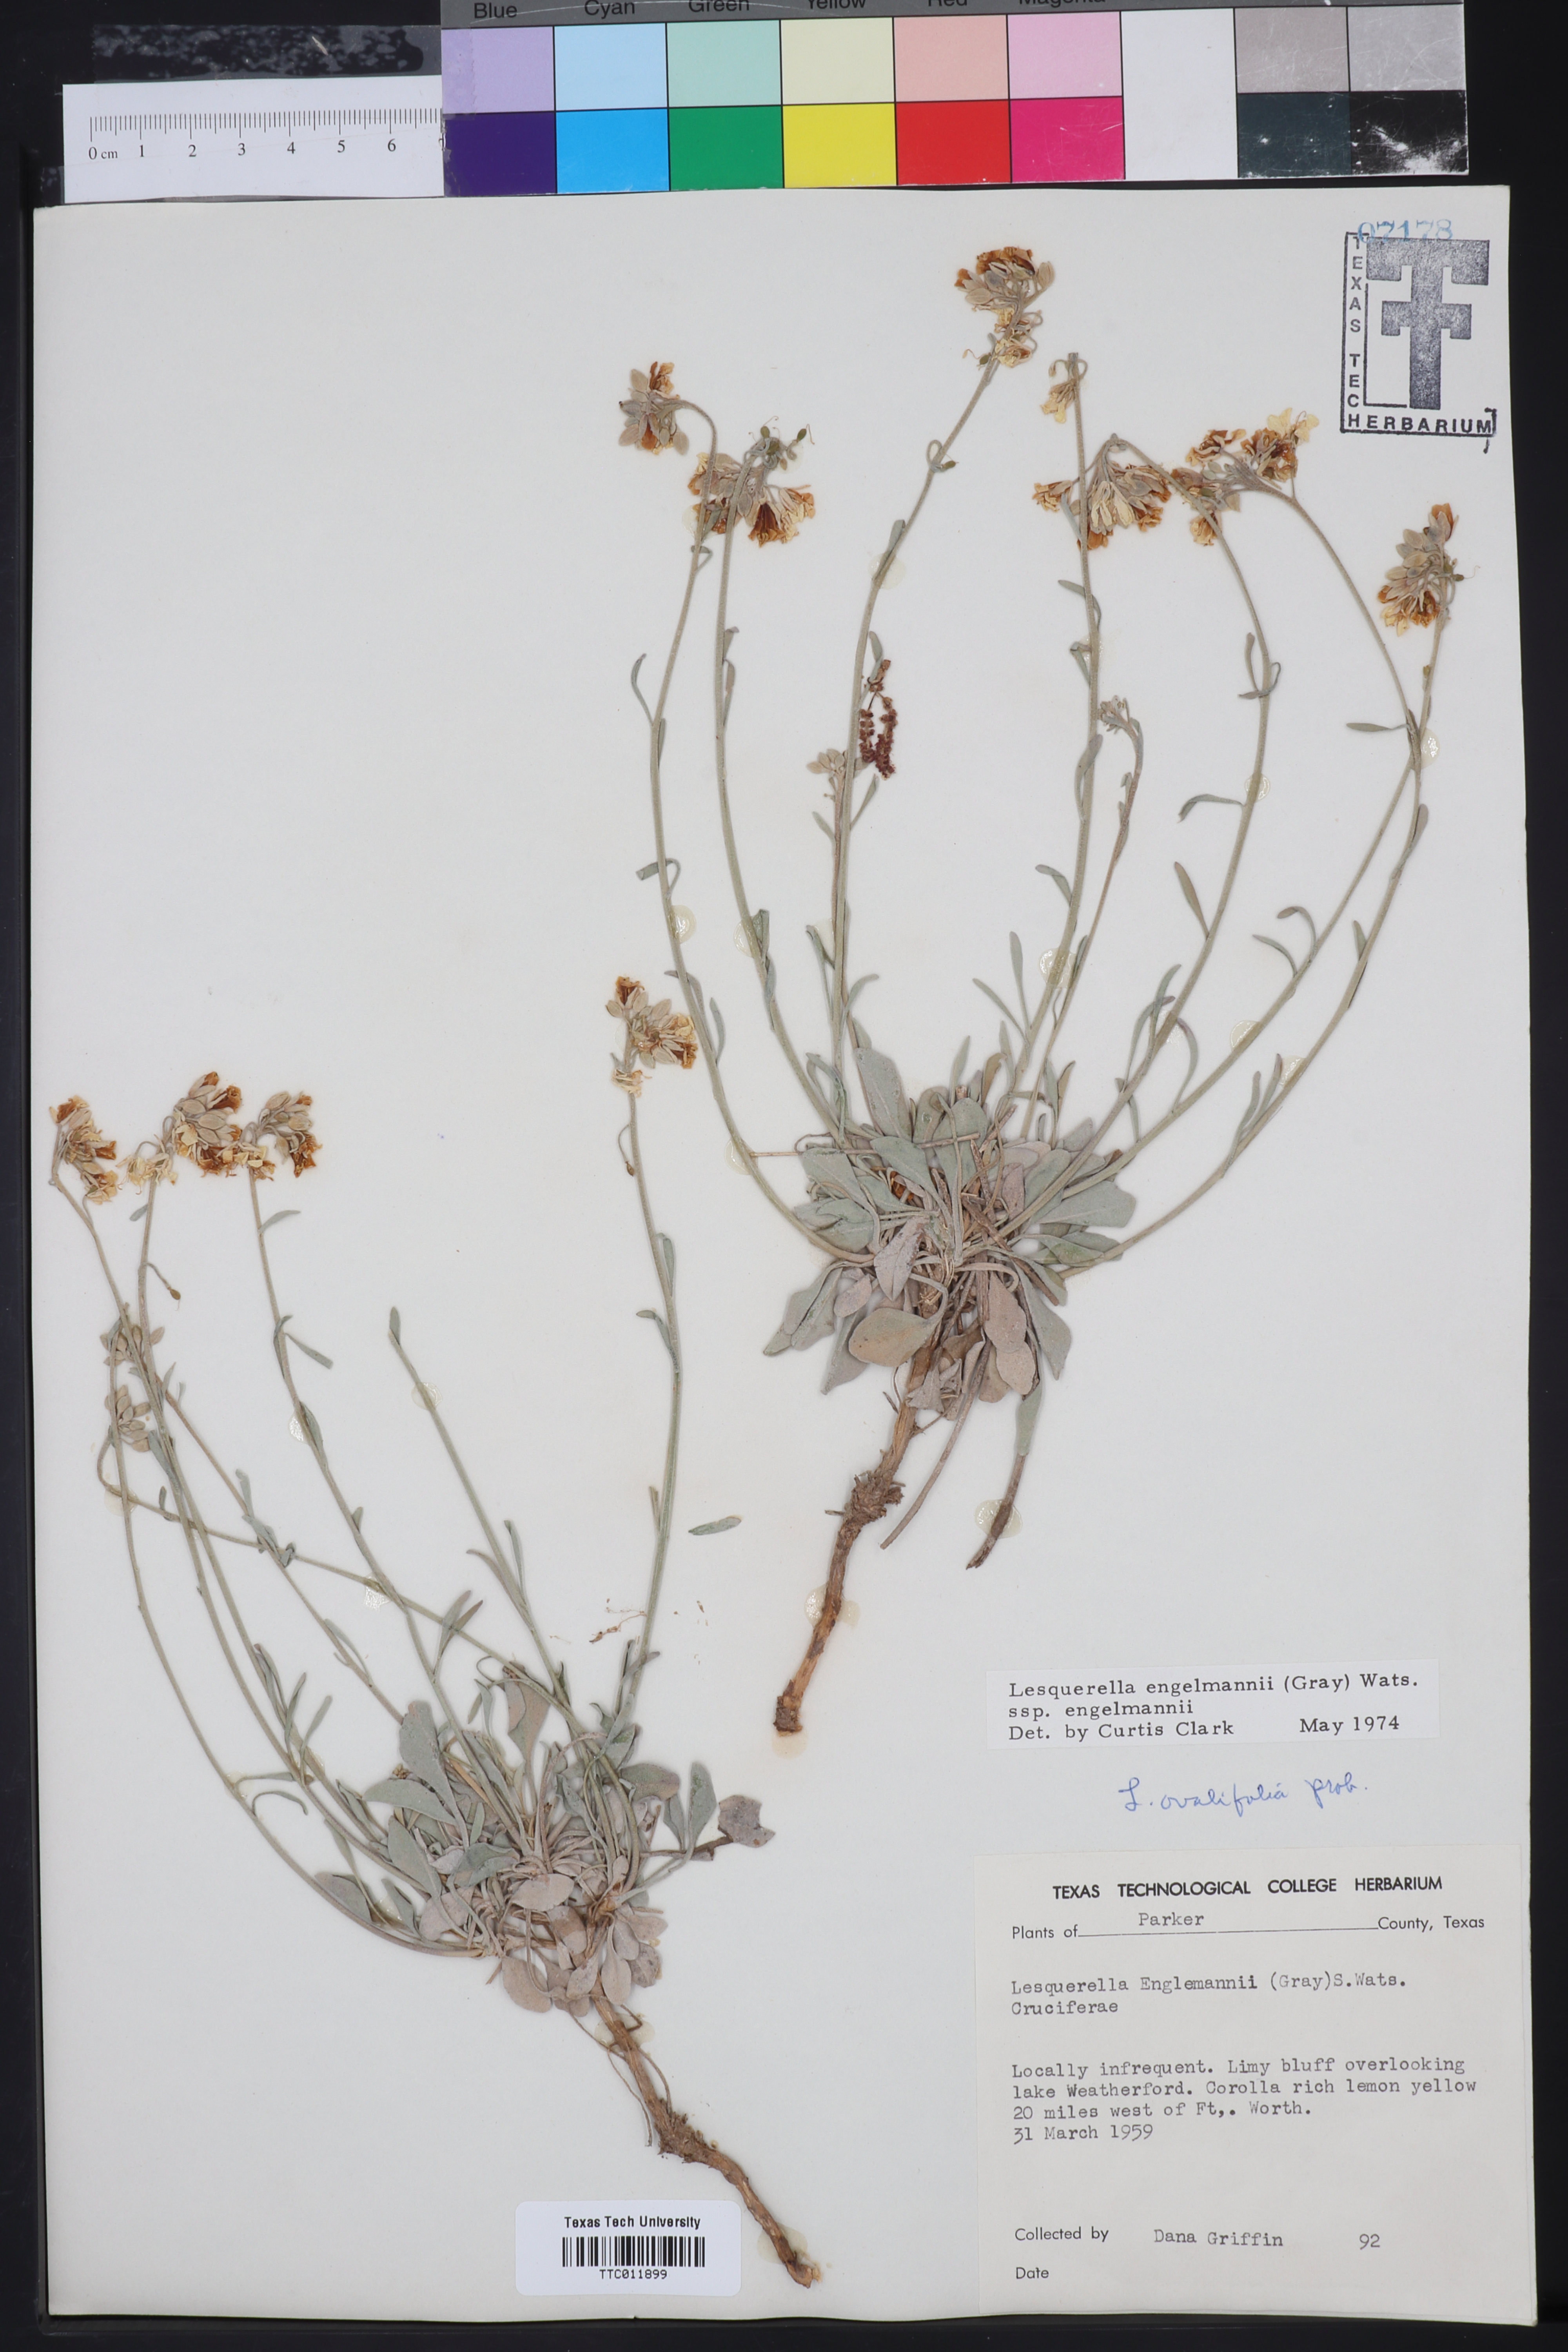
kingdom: Plantae
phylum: Tracheophyta
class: Magnoliopsida
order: Brassicales
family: Brassicaceae
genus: Physaria
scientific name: Physaria engelmannii
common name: Engelmann's bladderpod
